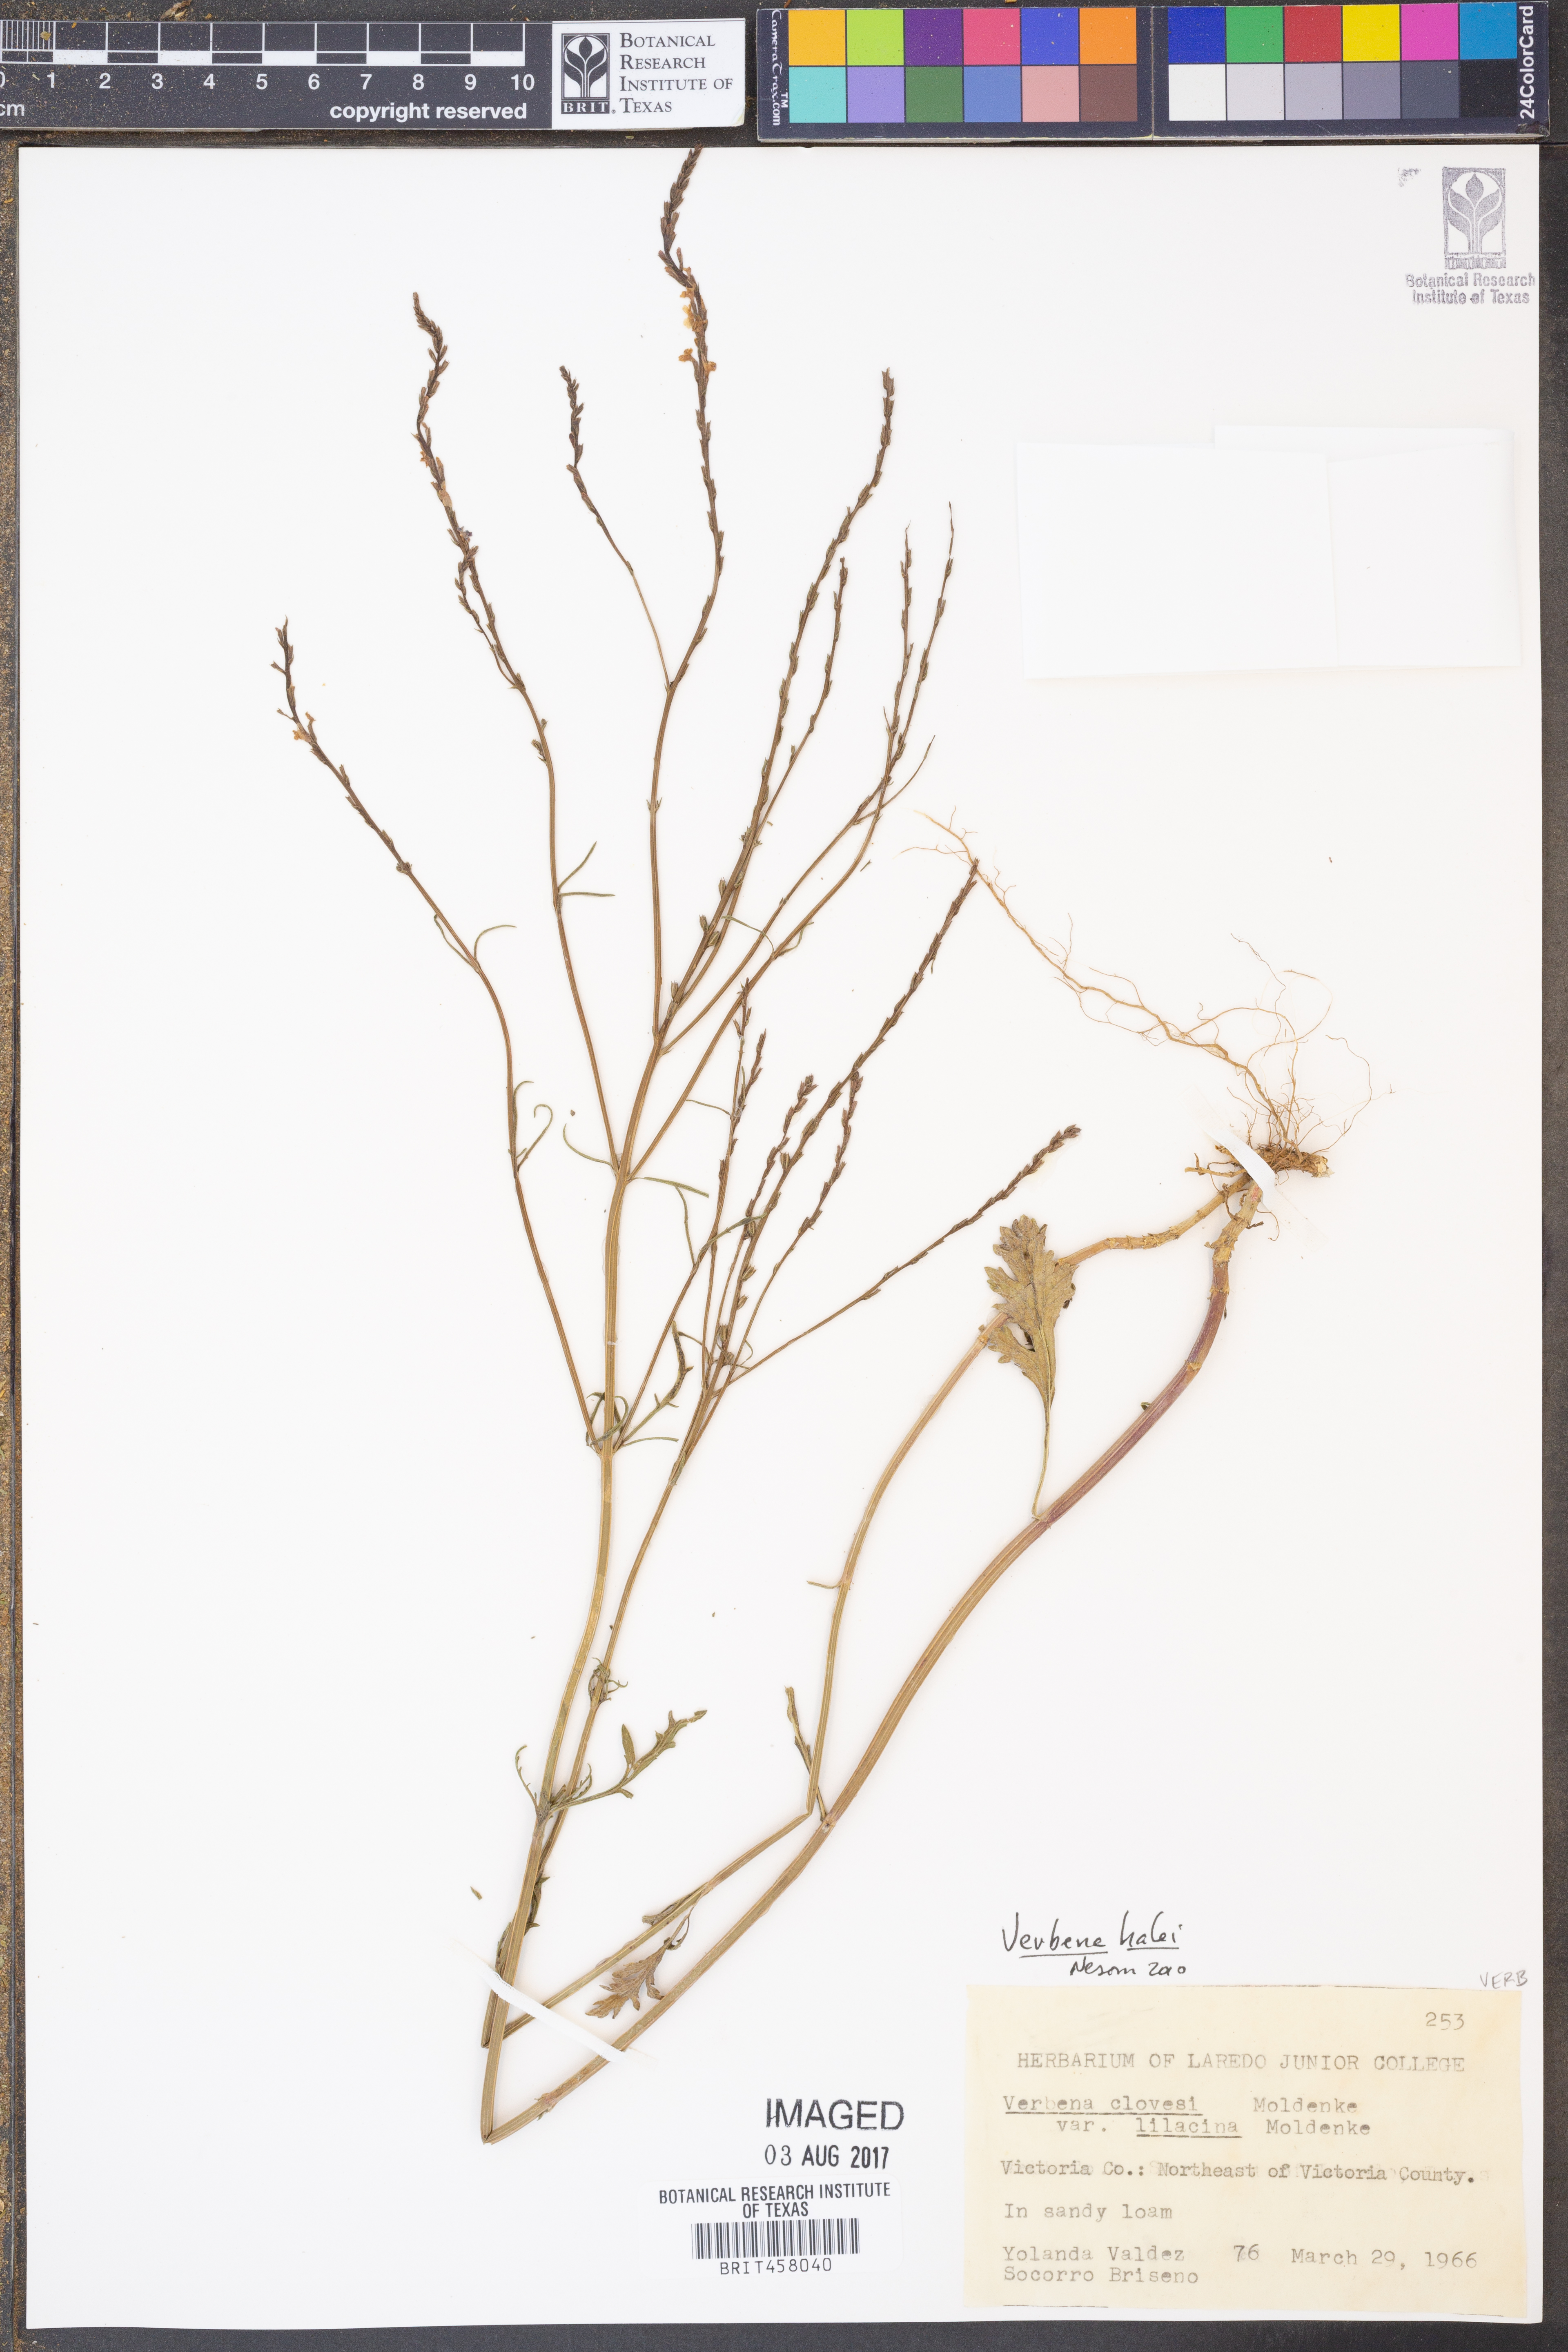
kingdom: Plantae
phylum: Tracheophyta
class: Magnoliopsida
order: Lamiales
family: Verbenaceae
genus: Verbena
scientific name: Verbena halei
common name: Texas vervain
